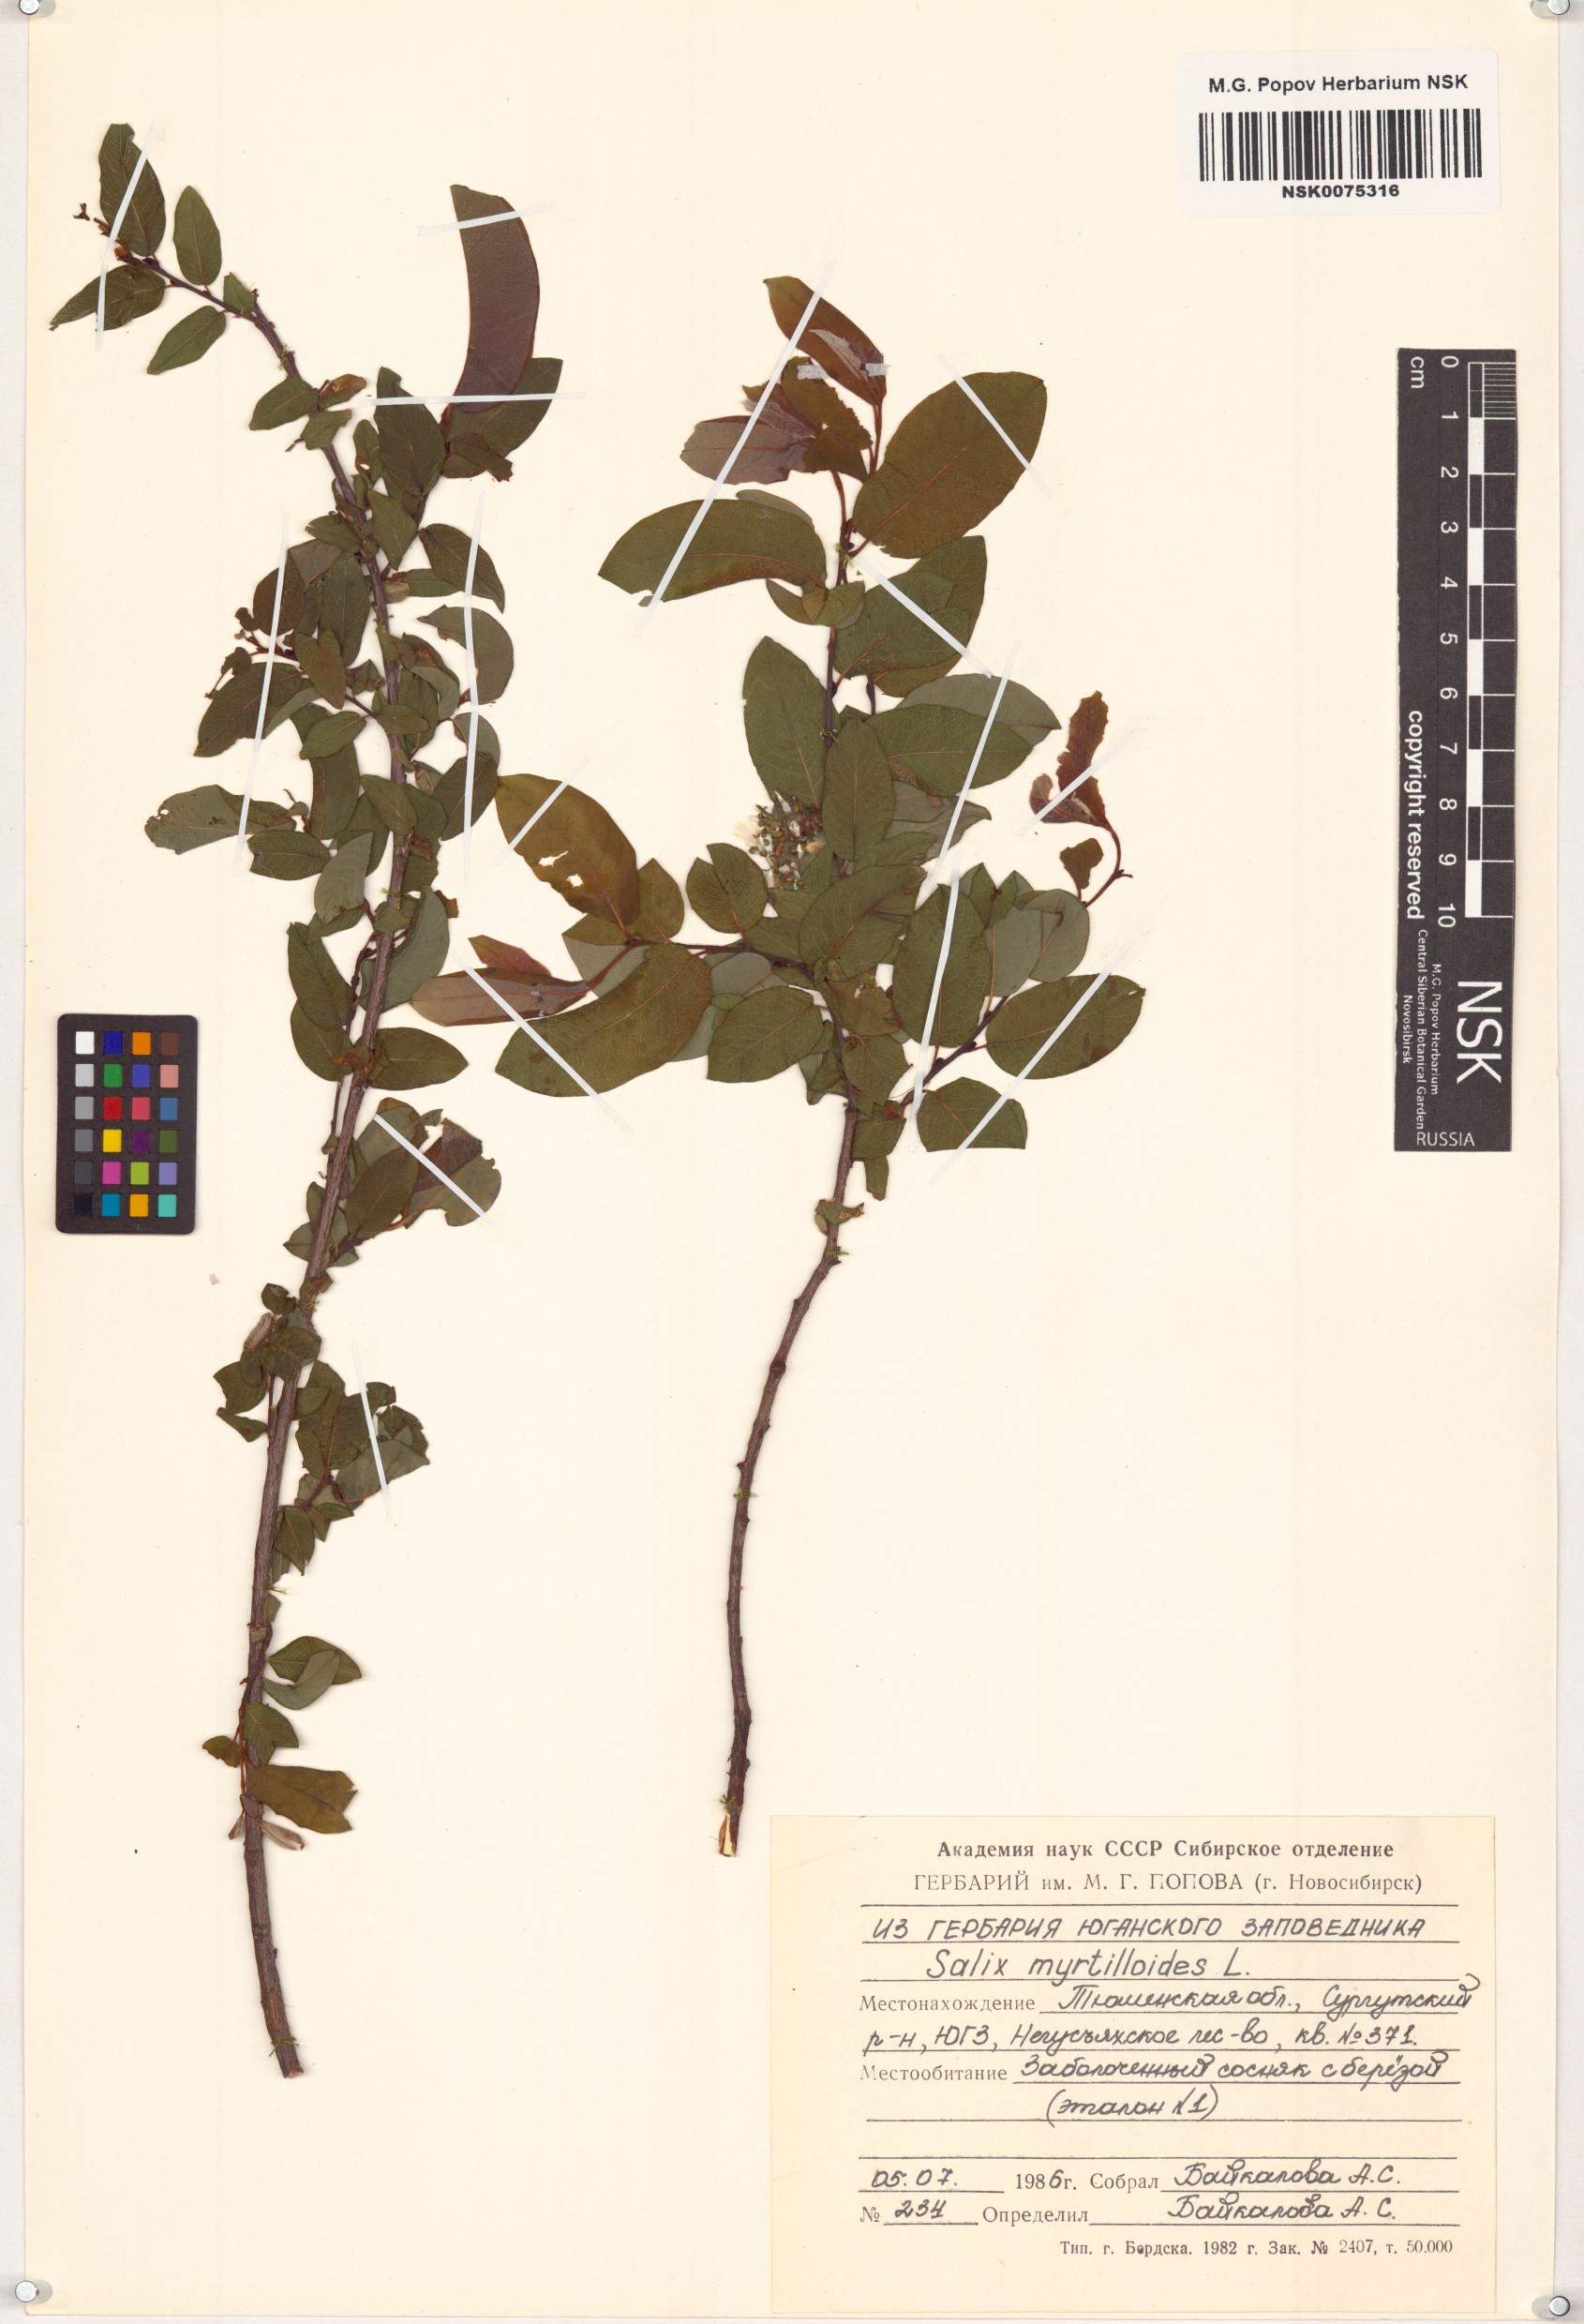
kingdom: Plantae
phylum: Tracheophyta
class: Magnoliopsida
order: Malpighiales
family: Salicaceae
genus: Salix
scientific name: Salix myrtilloides
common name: Myrtle-leaved willow
